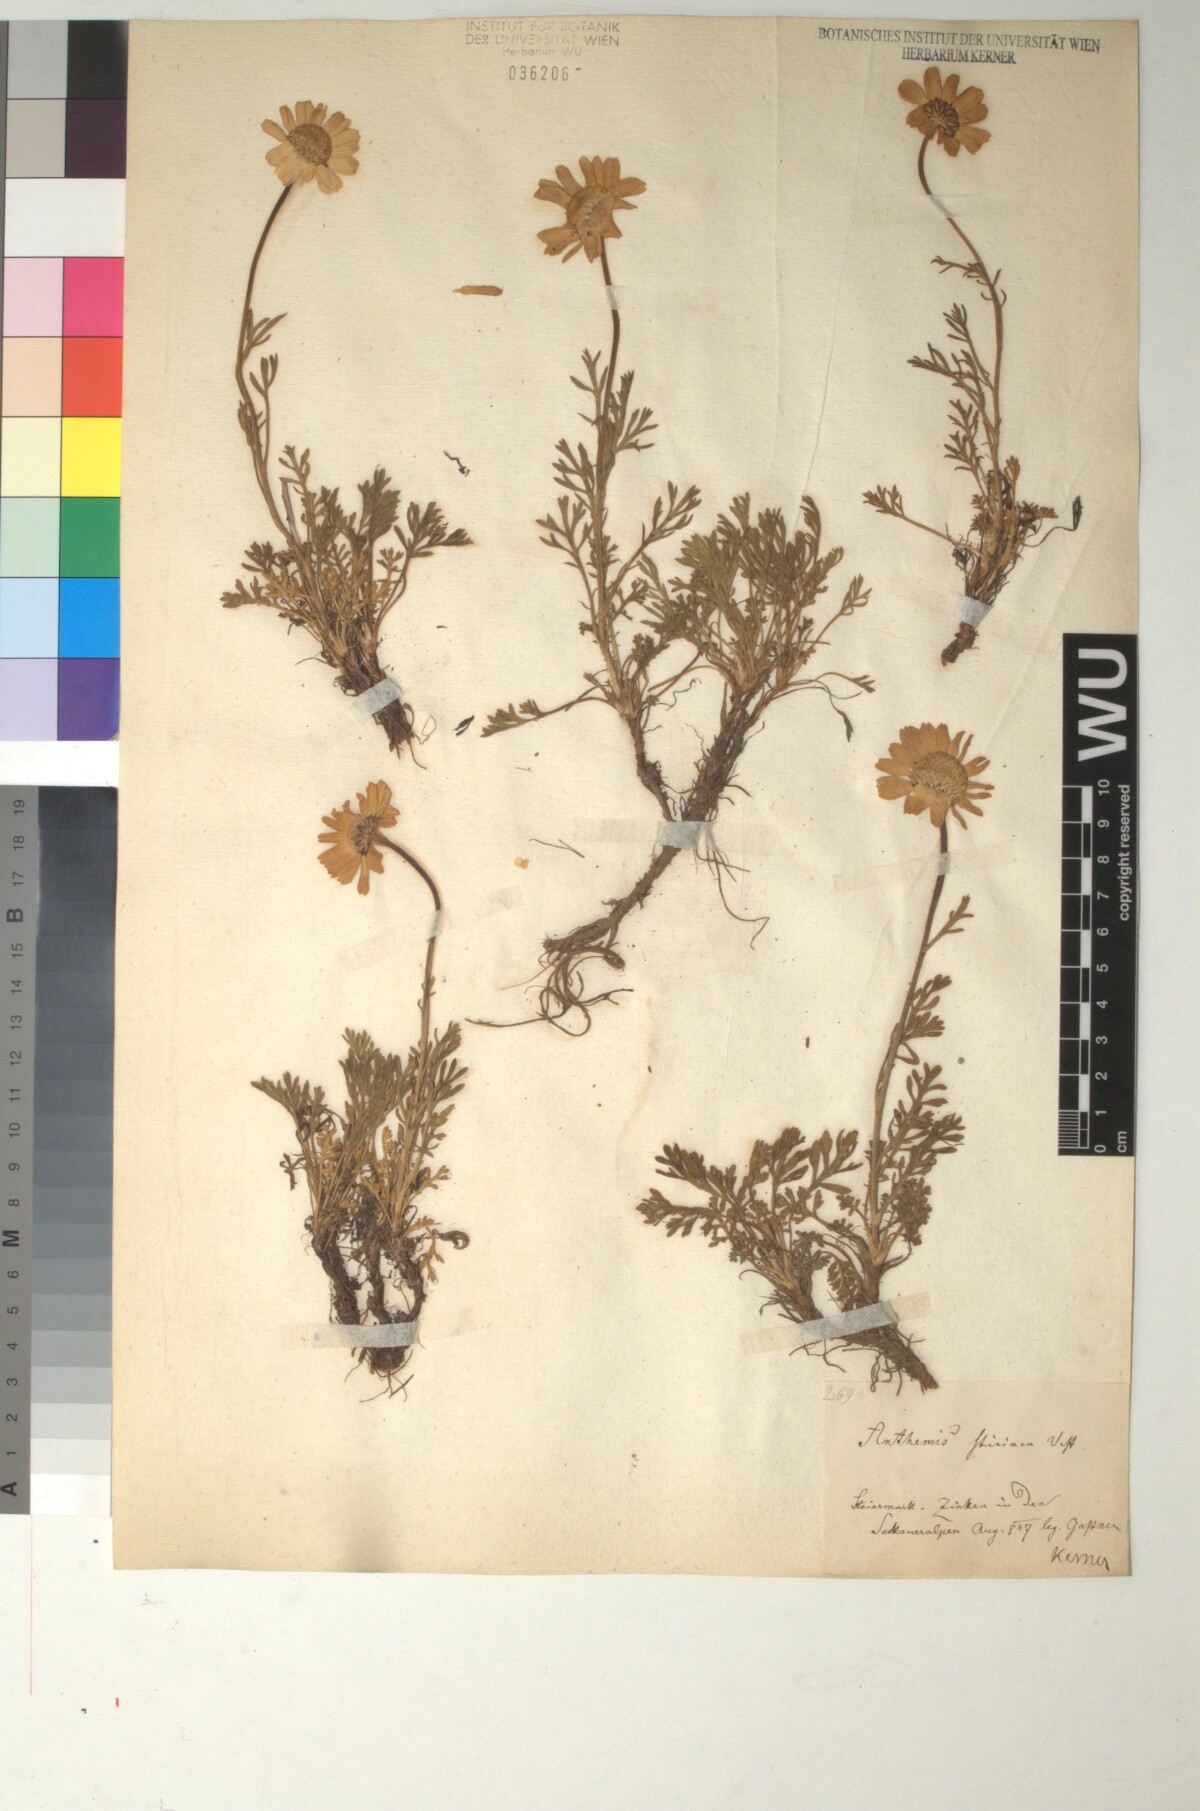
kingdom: Plantae
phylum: Tracheophyta
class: Magnoliopsida
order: Asterales
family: Asteraceae
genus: Anthemis
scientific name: Anthemis cretica
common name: Mountain dog-daisy
